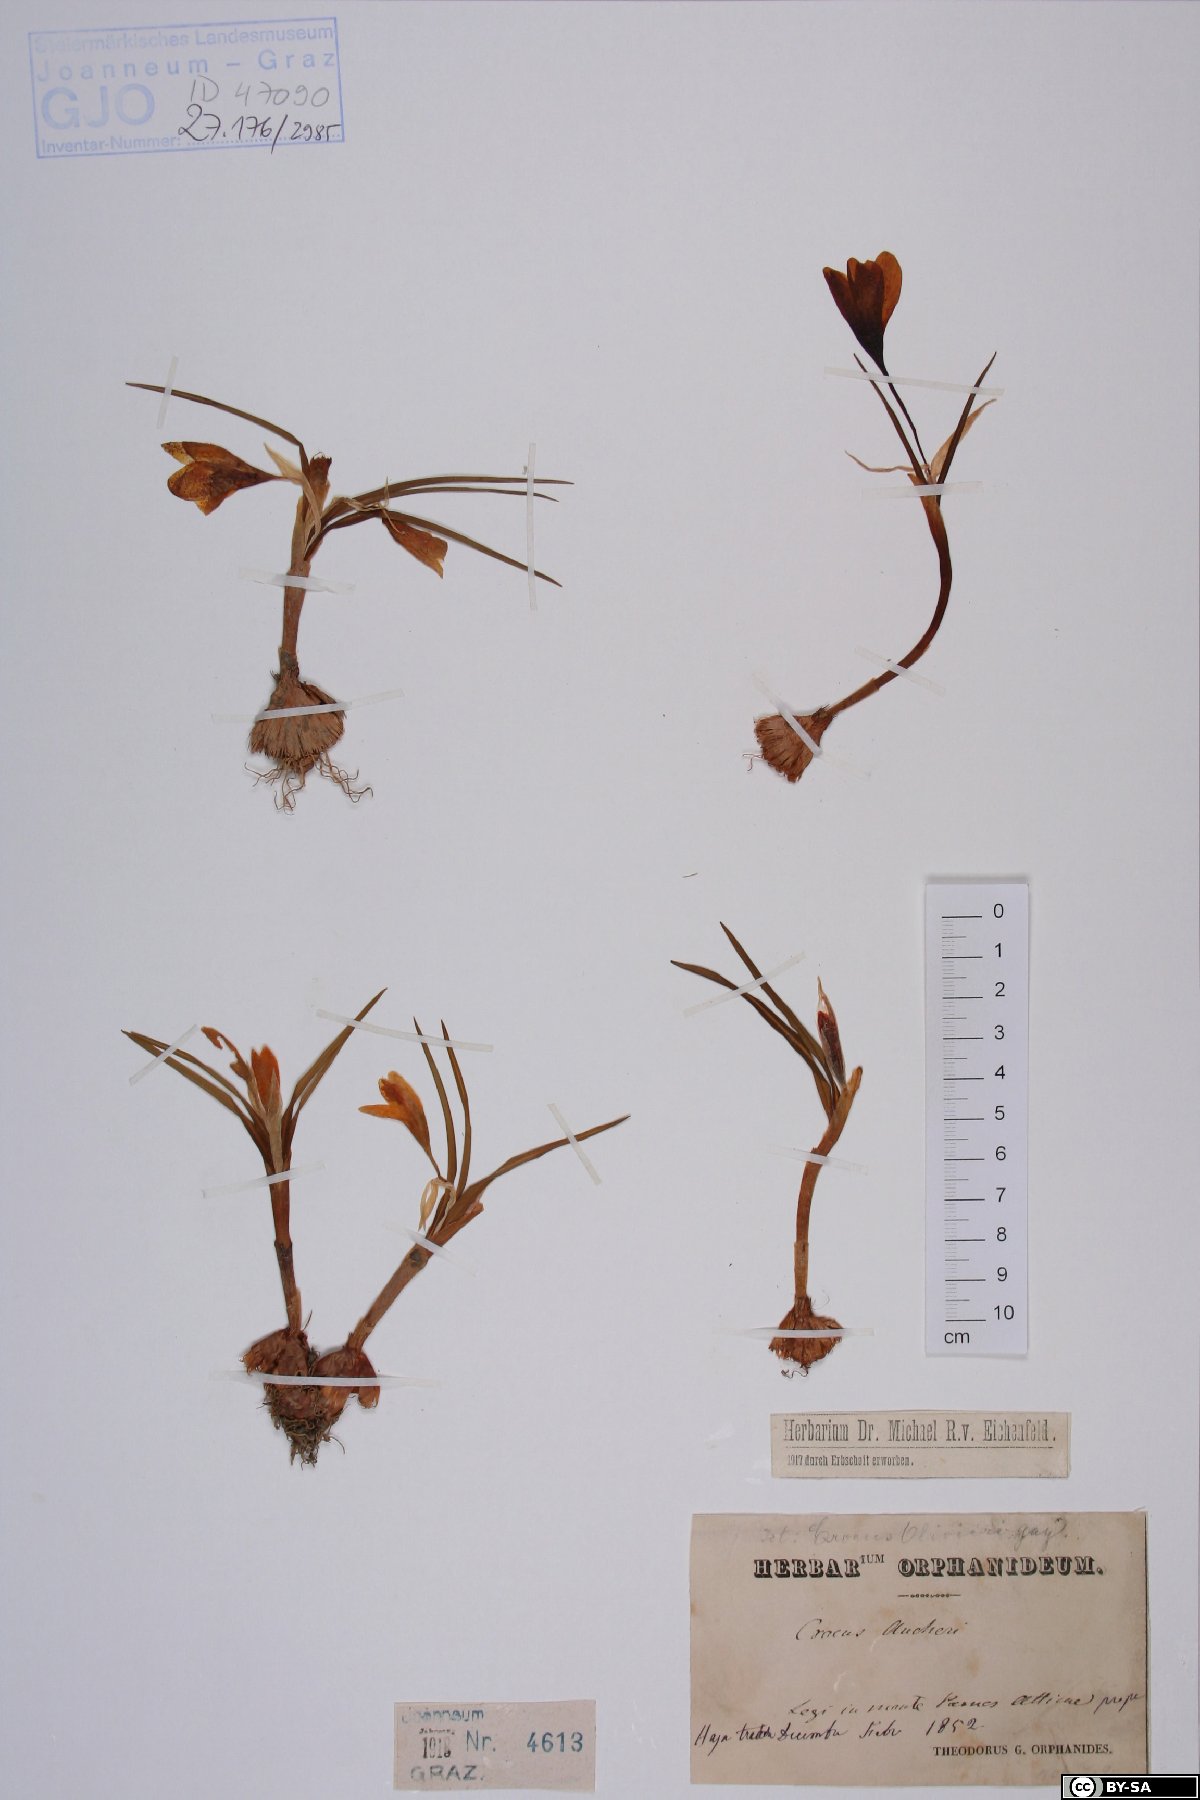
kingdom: Plantae
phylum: Tracheophyta
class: Liliopsida
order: Asparagales
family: Iridaceae
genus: Crocus
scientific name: Crocus olivieri
